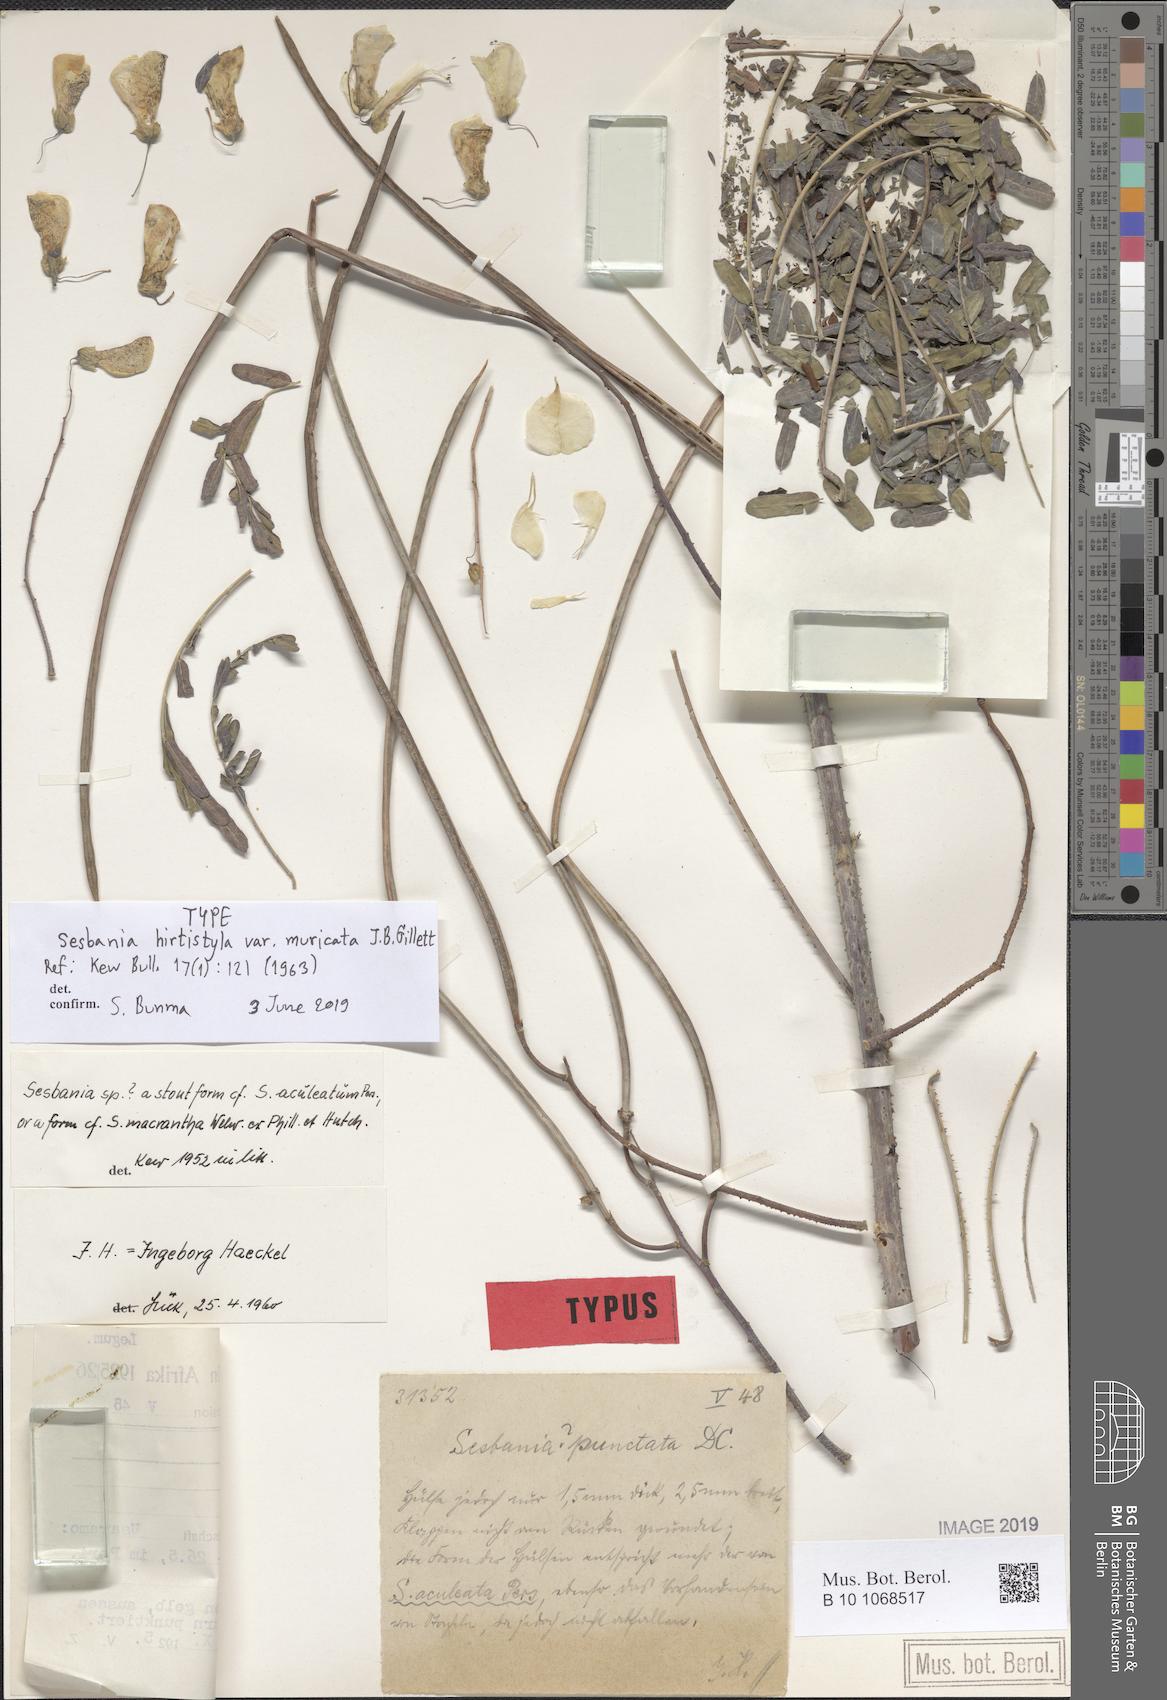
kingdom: Plantae
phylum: Tracheophyta
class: Magnoliopsida
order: Fabales
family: Fabaceae
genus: Sesbania
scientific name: Sesbania hirtistyla
